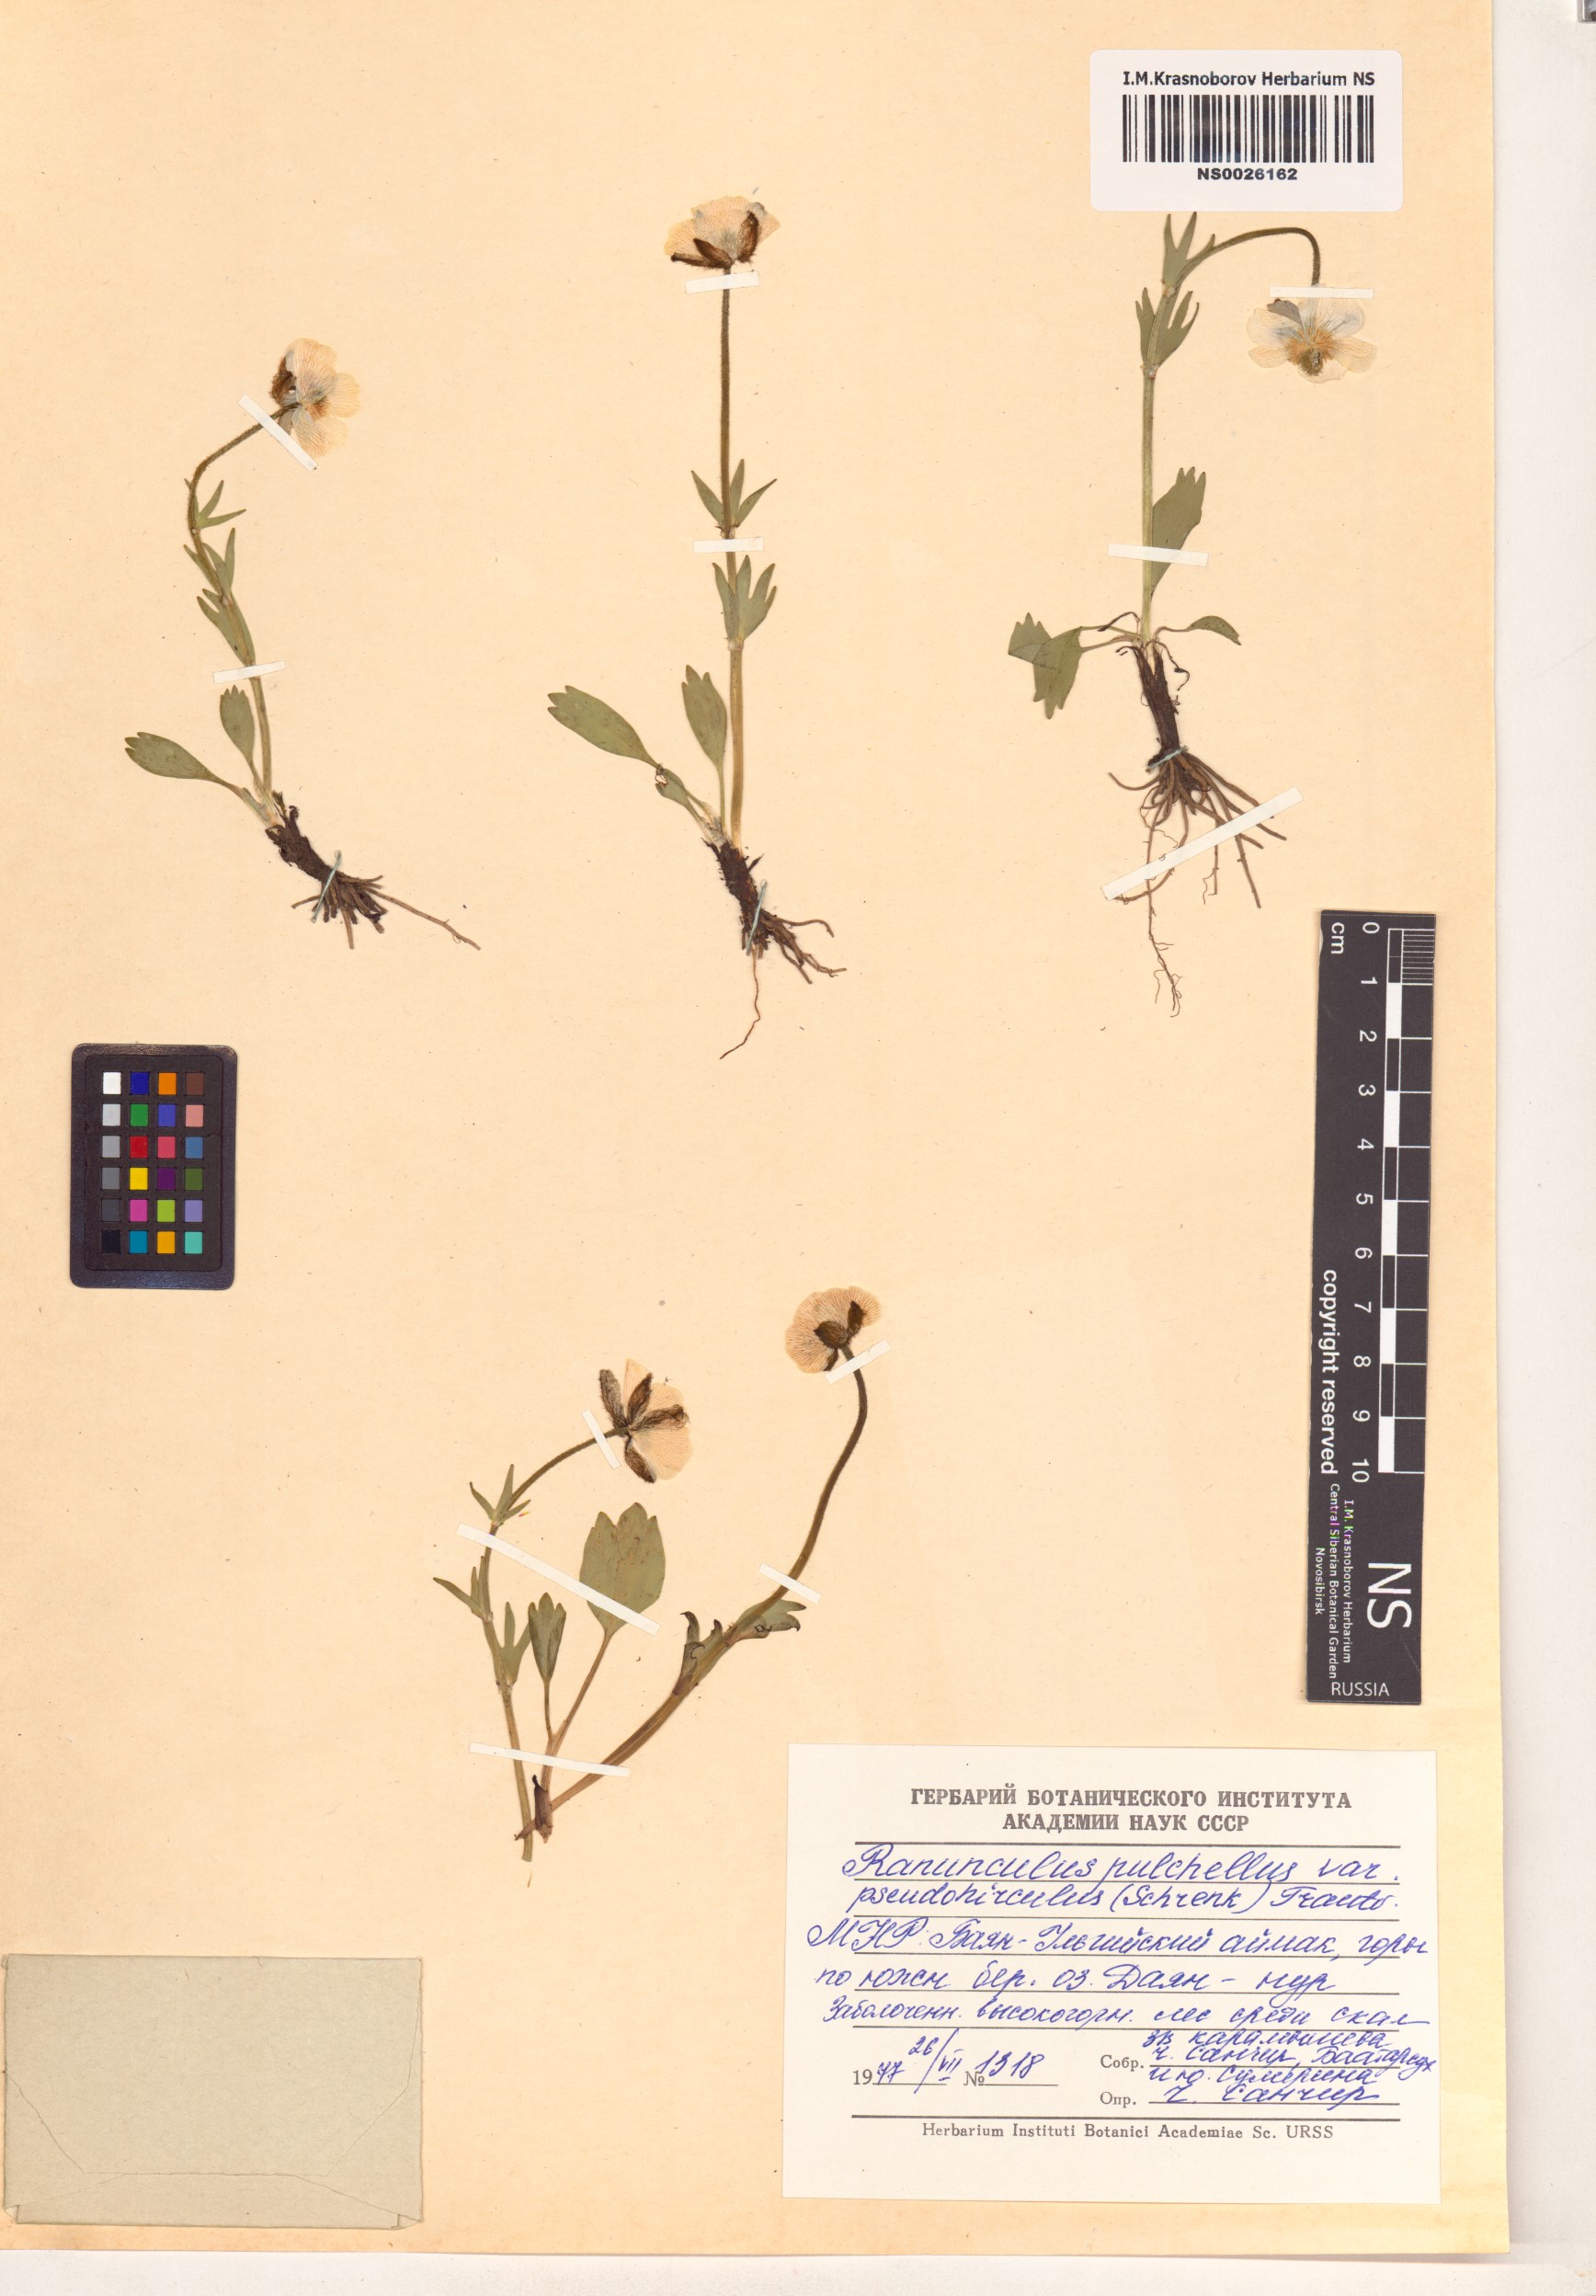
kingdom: Plantae
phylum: Tracheophyta
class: Magnoliopsida
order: Ranunculales
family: Ranunculaceae
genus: Ranunculus
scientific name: Ranunculus pseudohirculus
